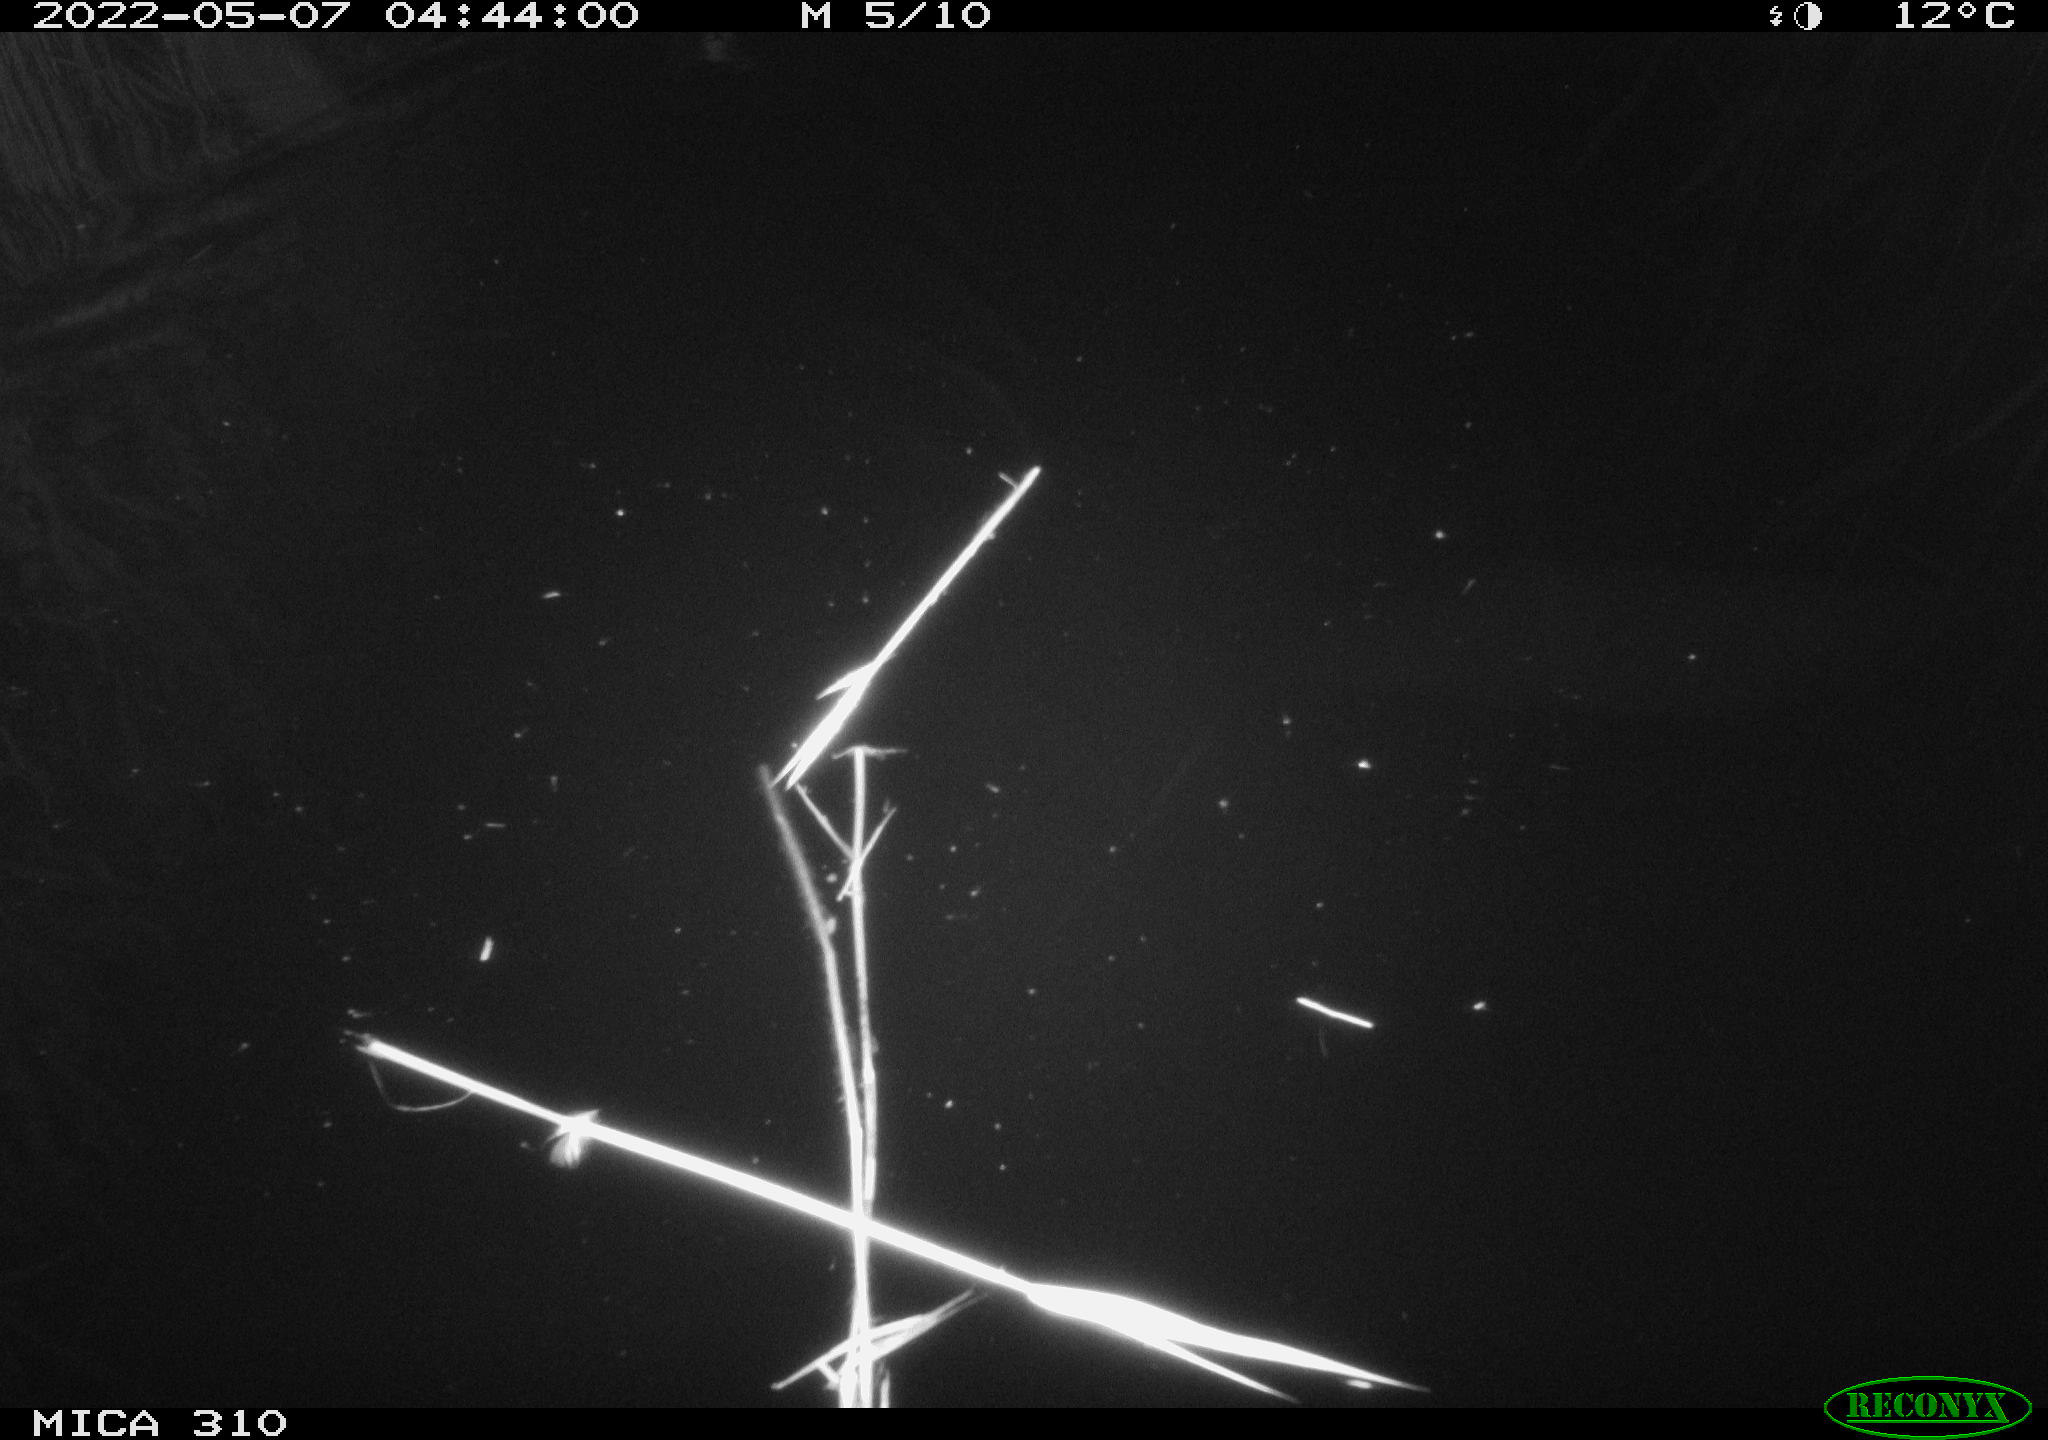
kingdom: Animalia
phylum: Chordata
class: Aves
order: Anseriformes
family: Anatidae
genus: Anas
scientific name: Anas platyrhynchos
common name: Mallard
